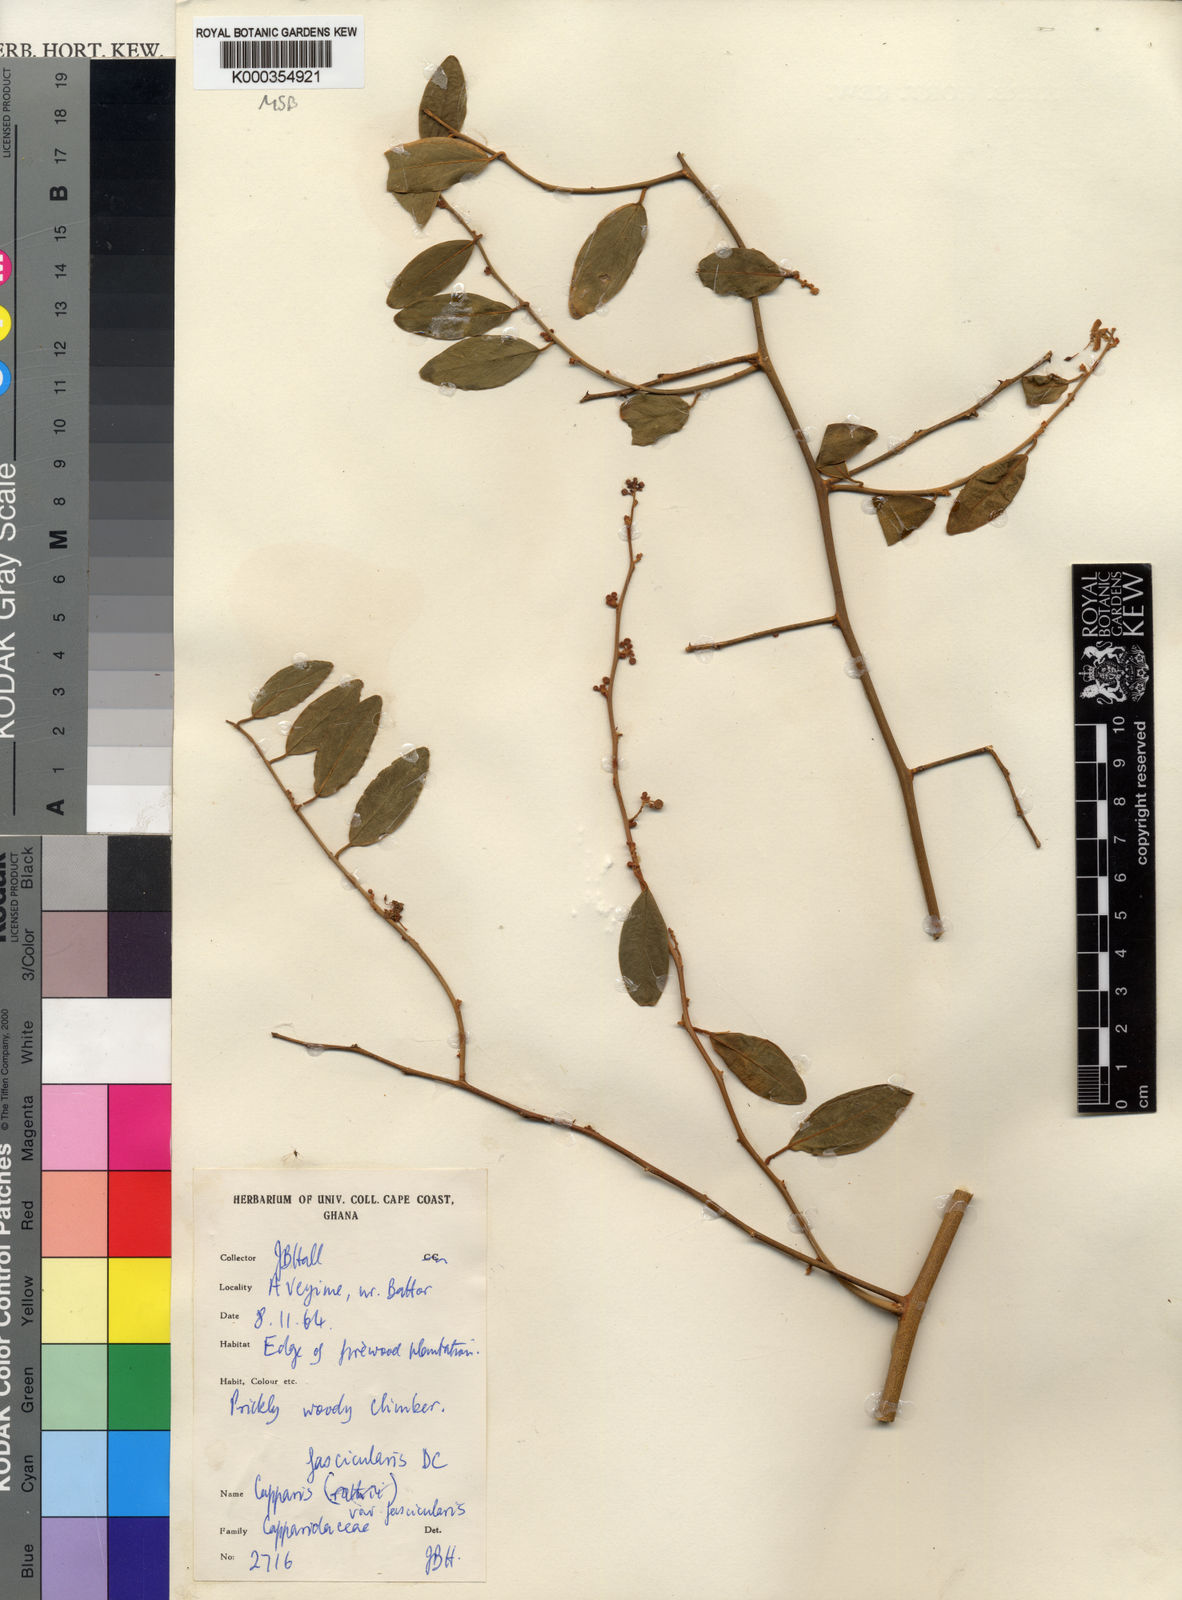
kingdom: Plantae
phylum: Tracheophyta
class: Magnoliopsida
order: Brassicales
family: Capparaceae
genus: Capparis
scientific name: Capparis fascicularis
